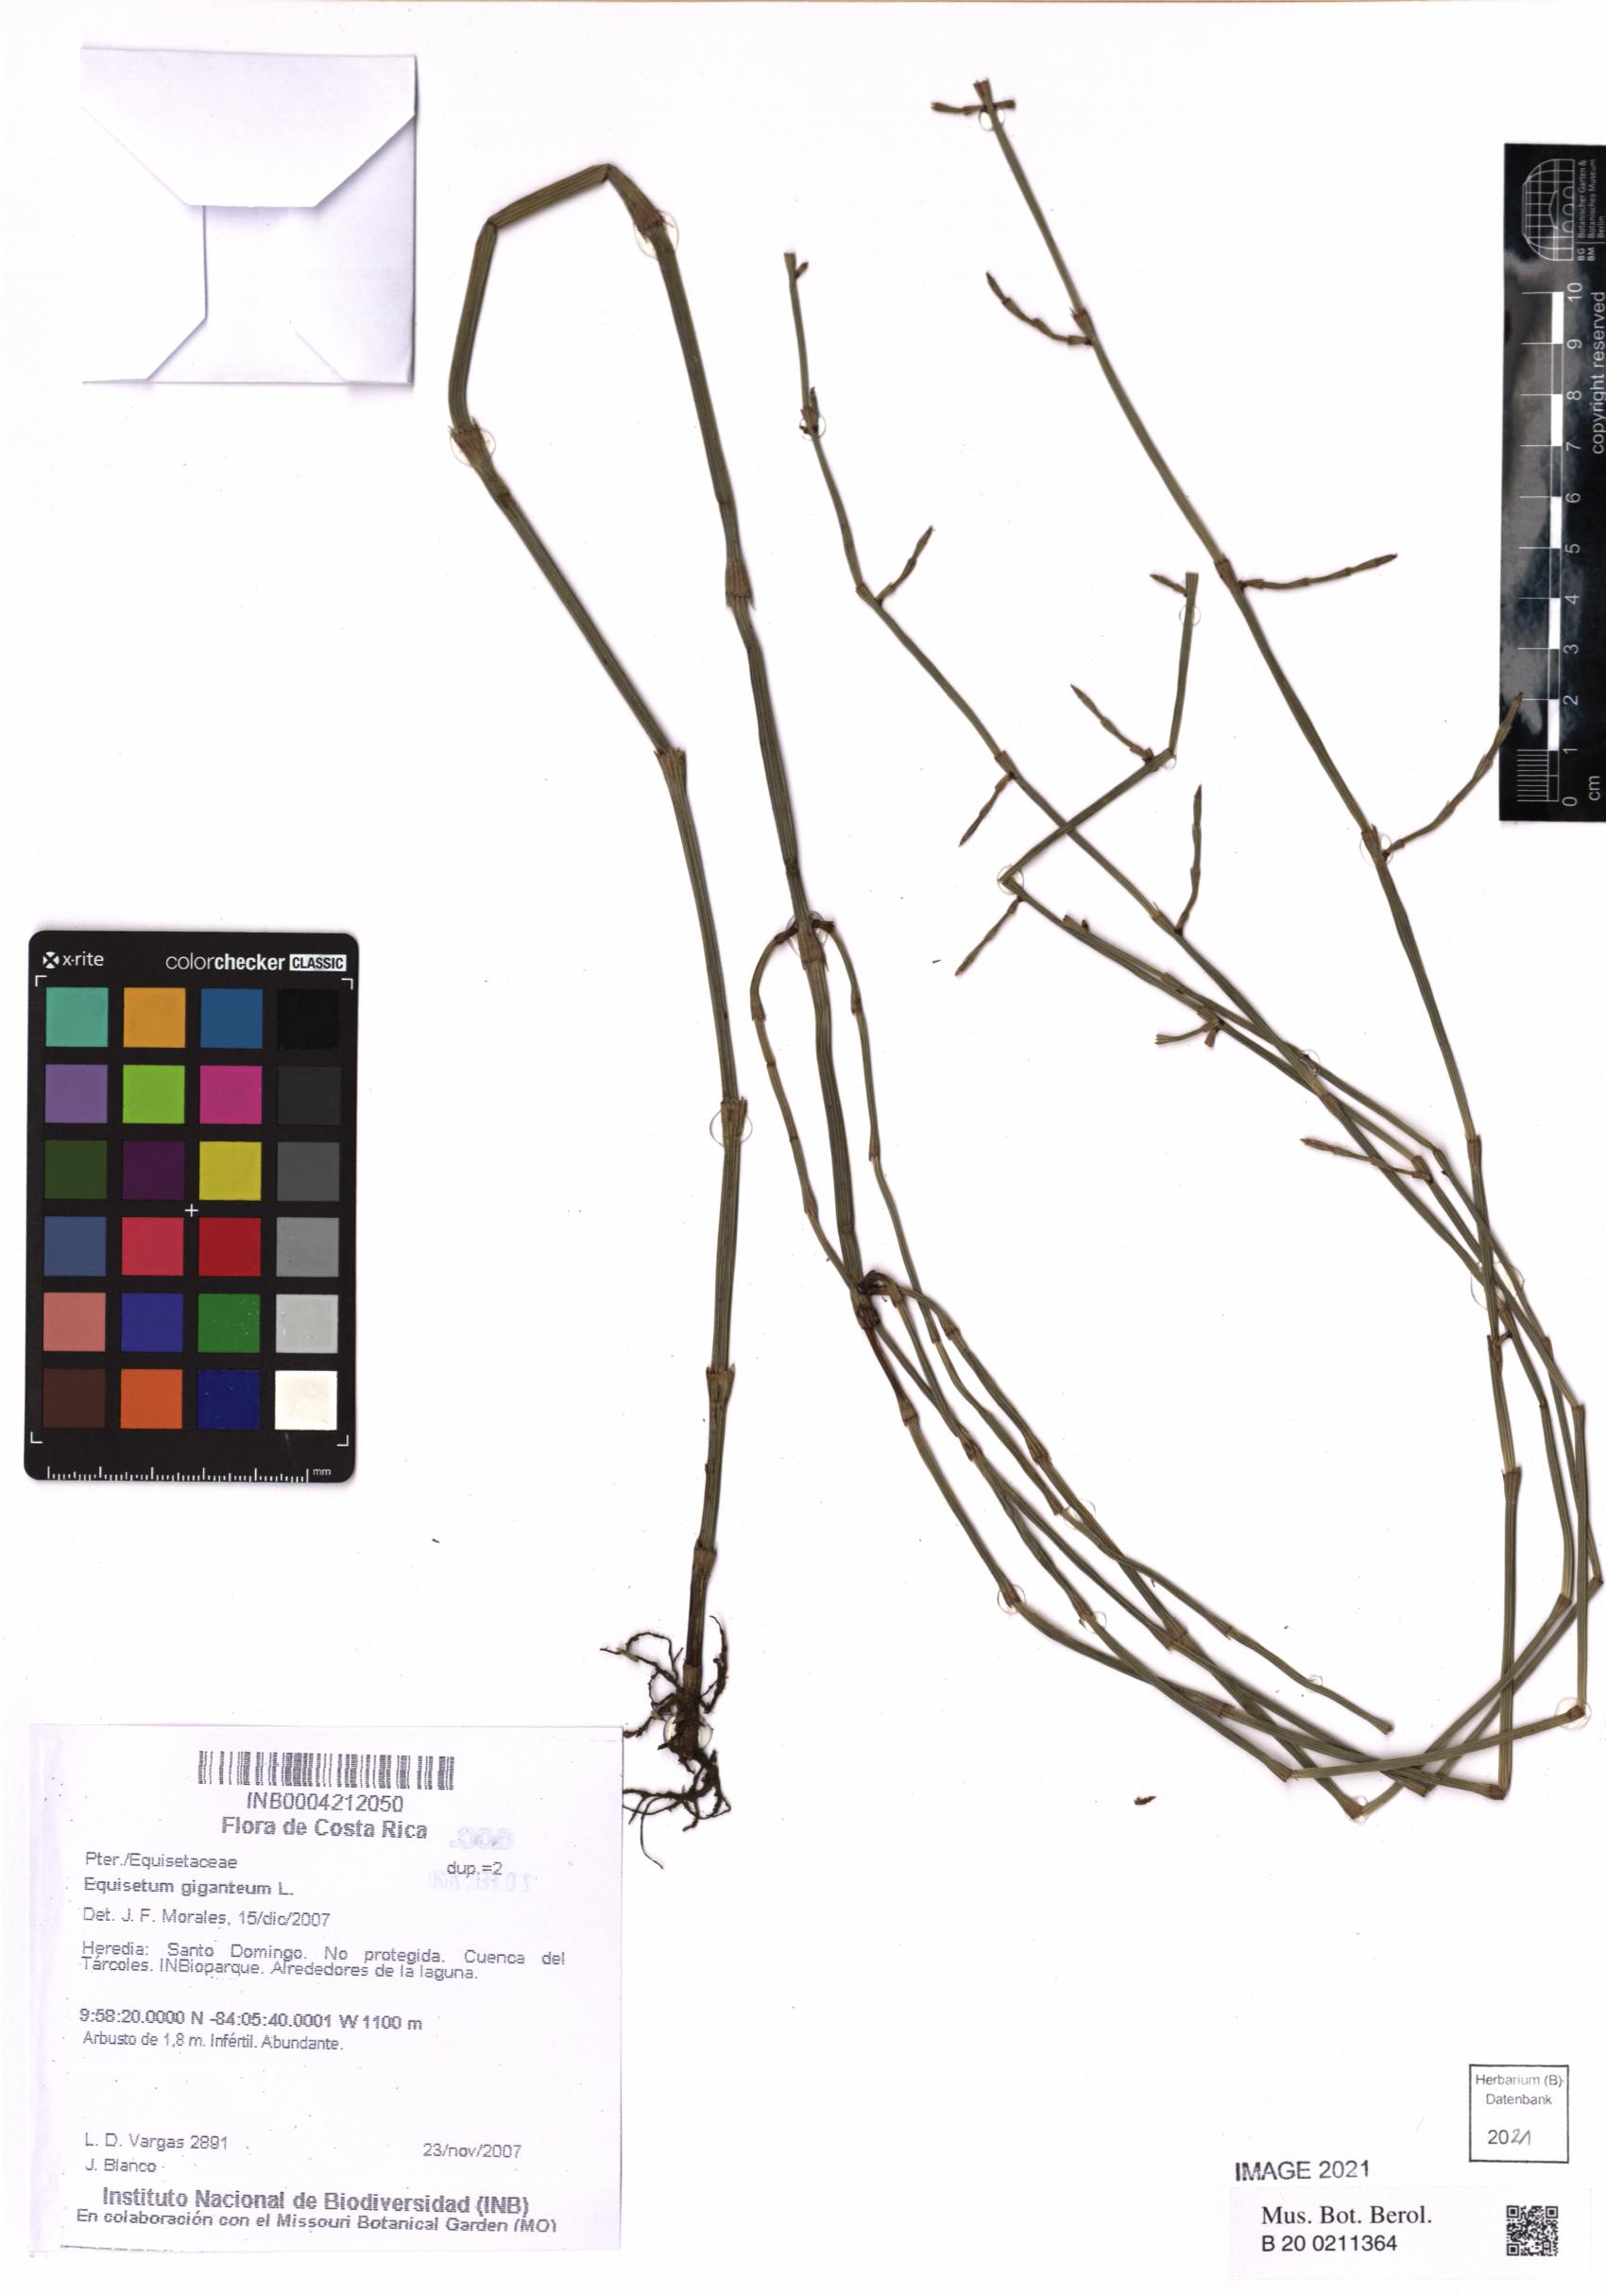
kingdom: Plantae
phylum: Tracheophyta
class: Polypodiopsida
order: Equisetales
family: Equisetaceae
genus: Equisetum
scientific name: Equisetum giganteum
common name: Giant horsetail
